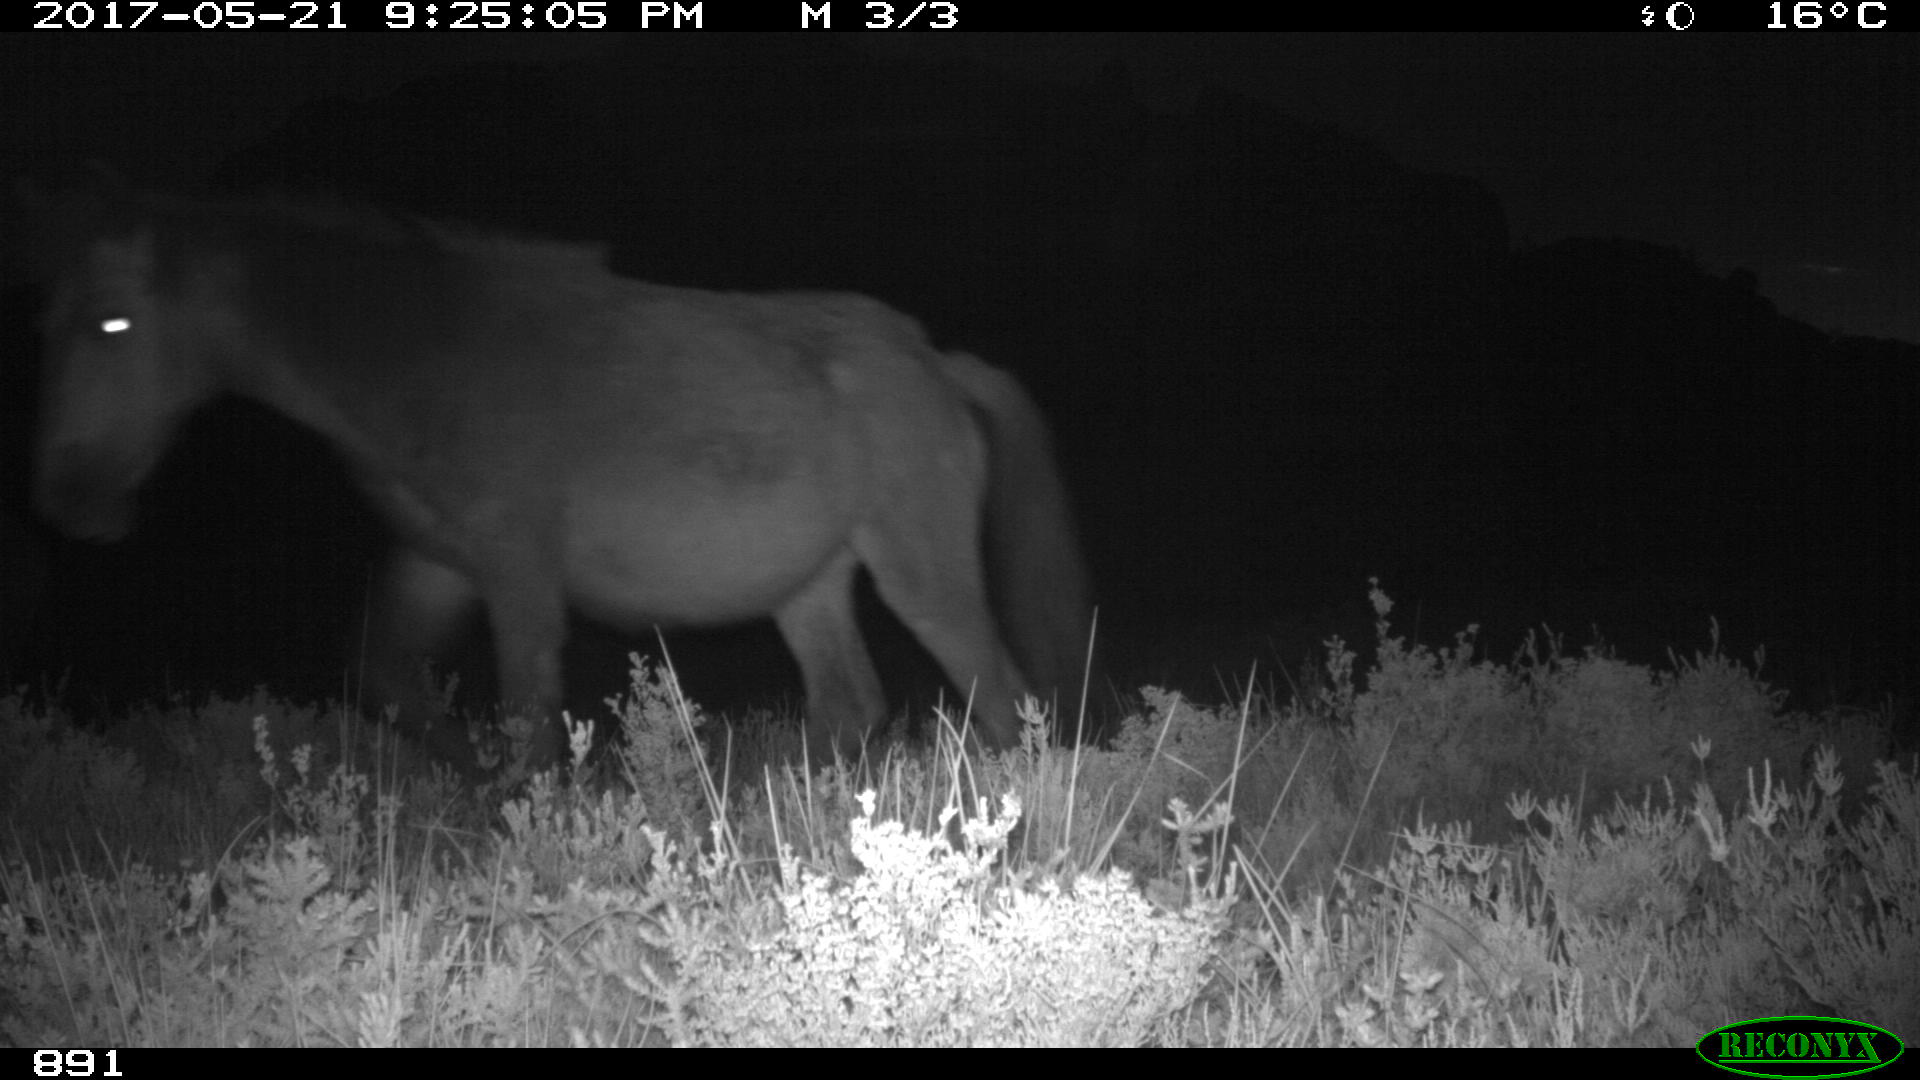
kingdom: Animalia
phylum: Chordata
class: Mammalia
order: Perissodactyla
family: Equidae
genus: Equus
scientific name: Equus caballus
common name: Horse
